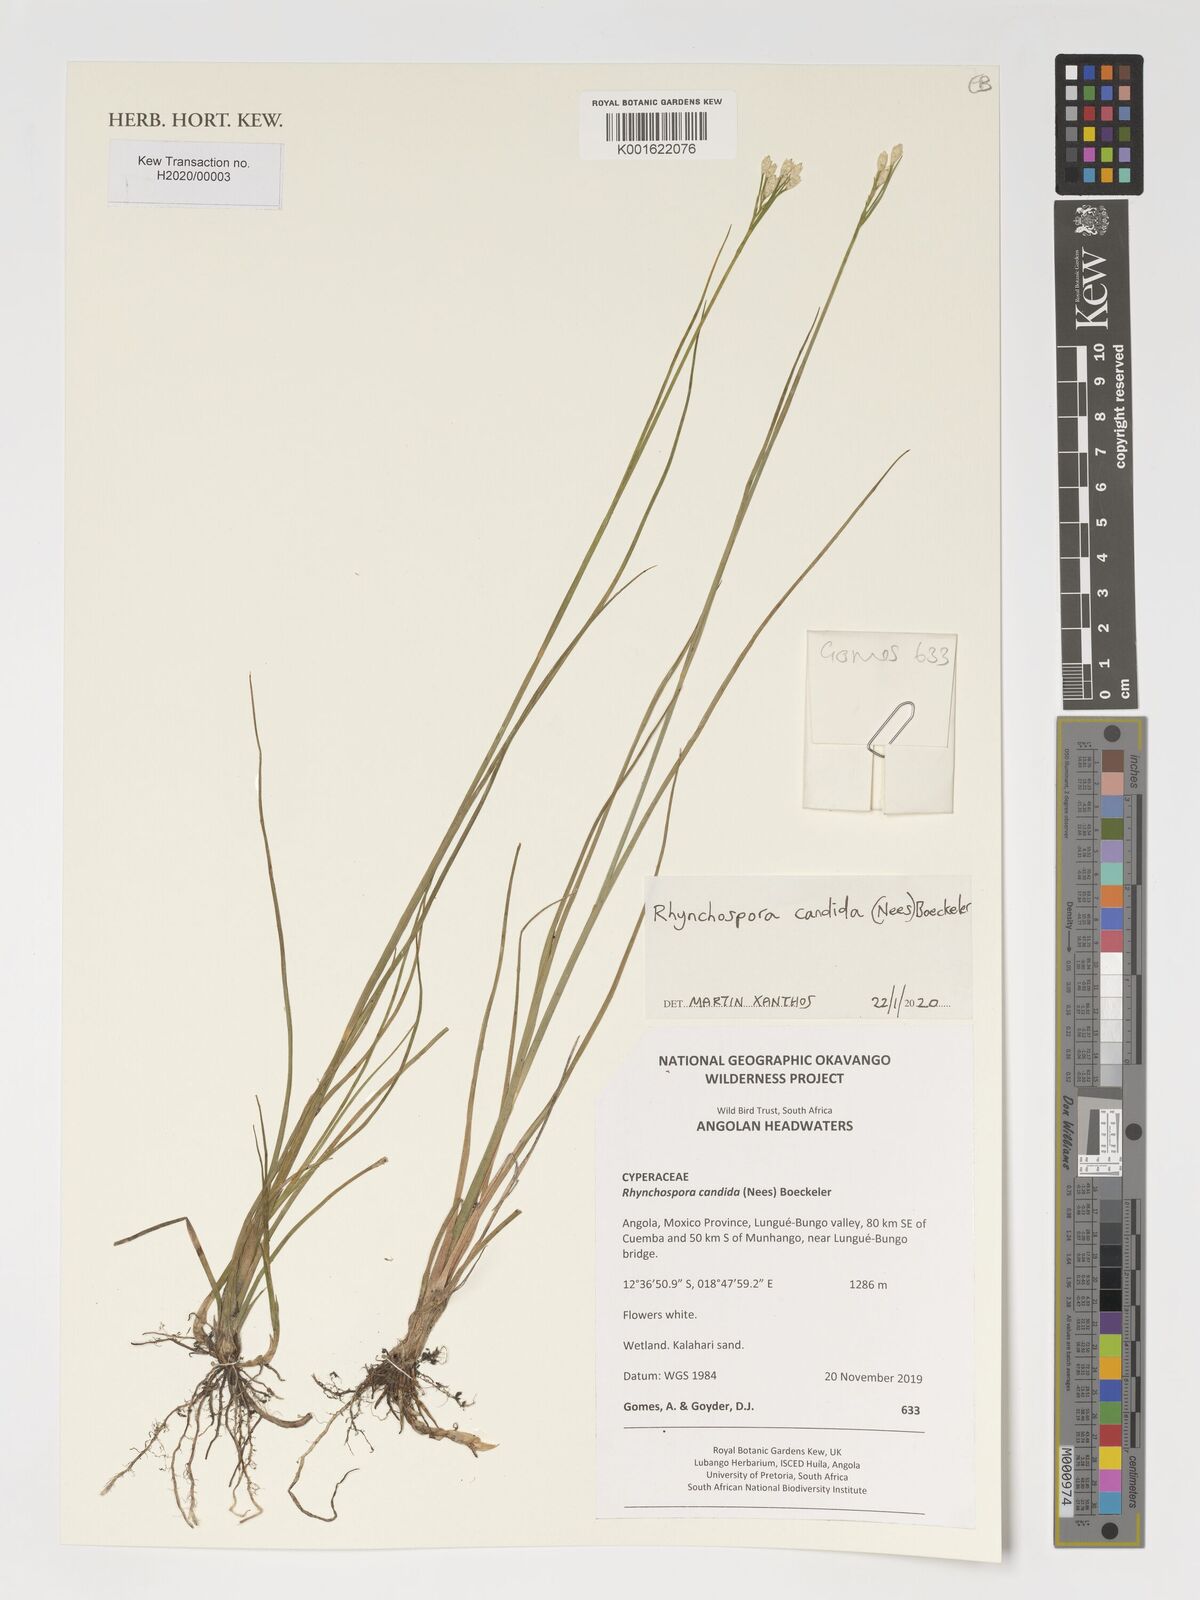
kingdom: Plantae
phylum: Tracheophyta
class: Liliopsida
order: Poales
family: Cyperaceae
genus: Rhynchospora
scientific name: Rhynchospora candida
